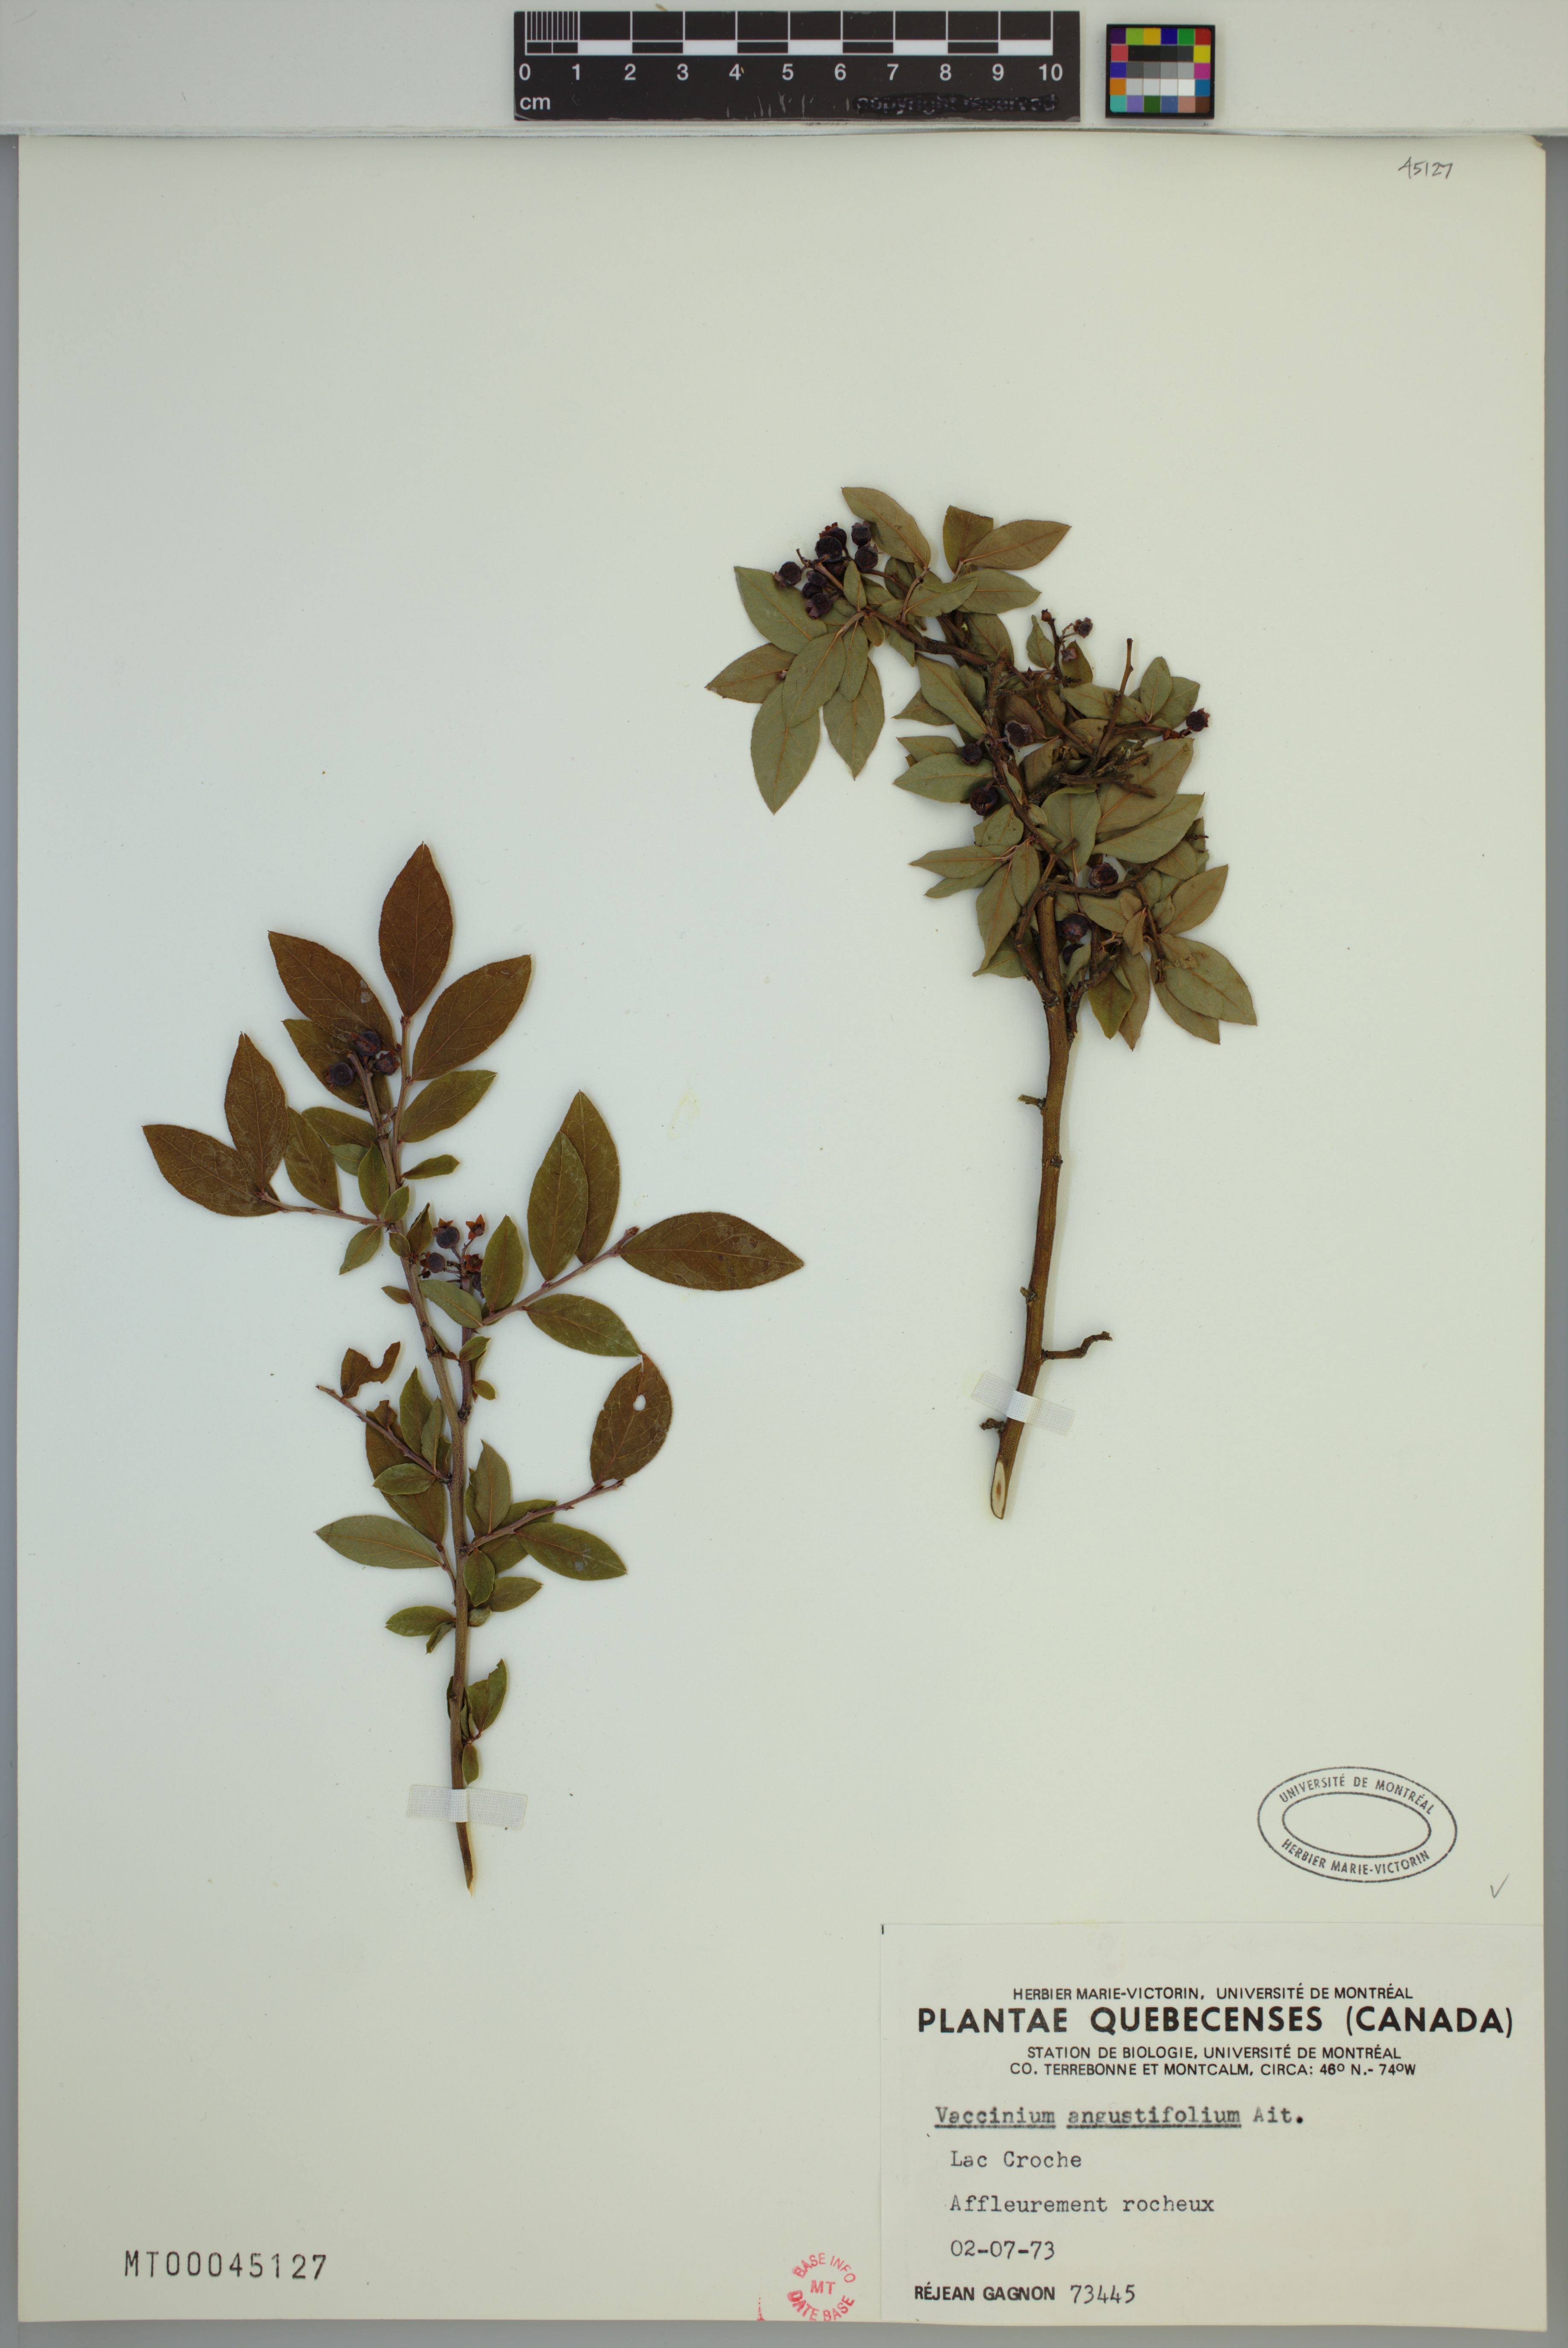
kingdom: Plantae
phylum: Tracheophyta
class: Magnoliopsida
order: Ericales
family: Ericaceae
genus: Vaccinium
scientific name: Vaccinium angustifolium
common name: Early lowbush blueberry
